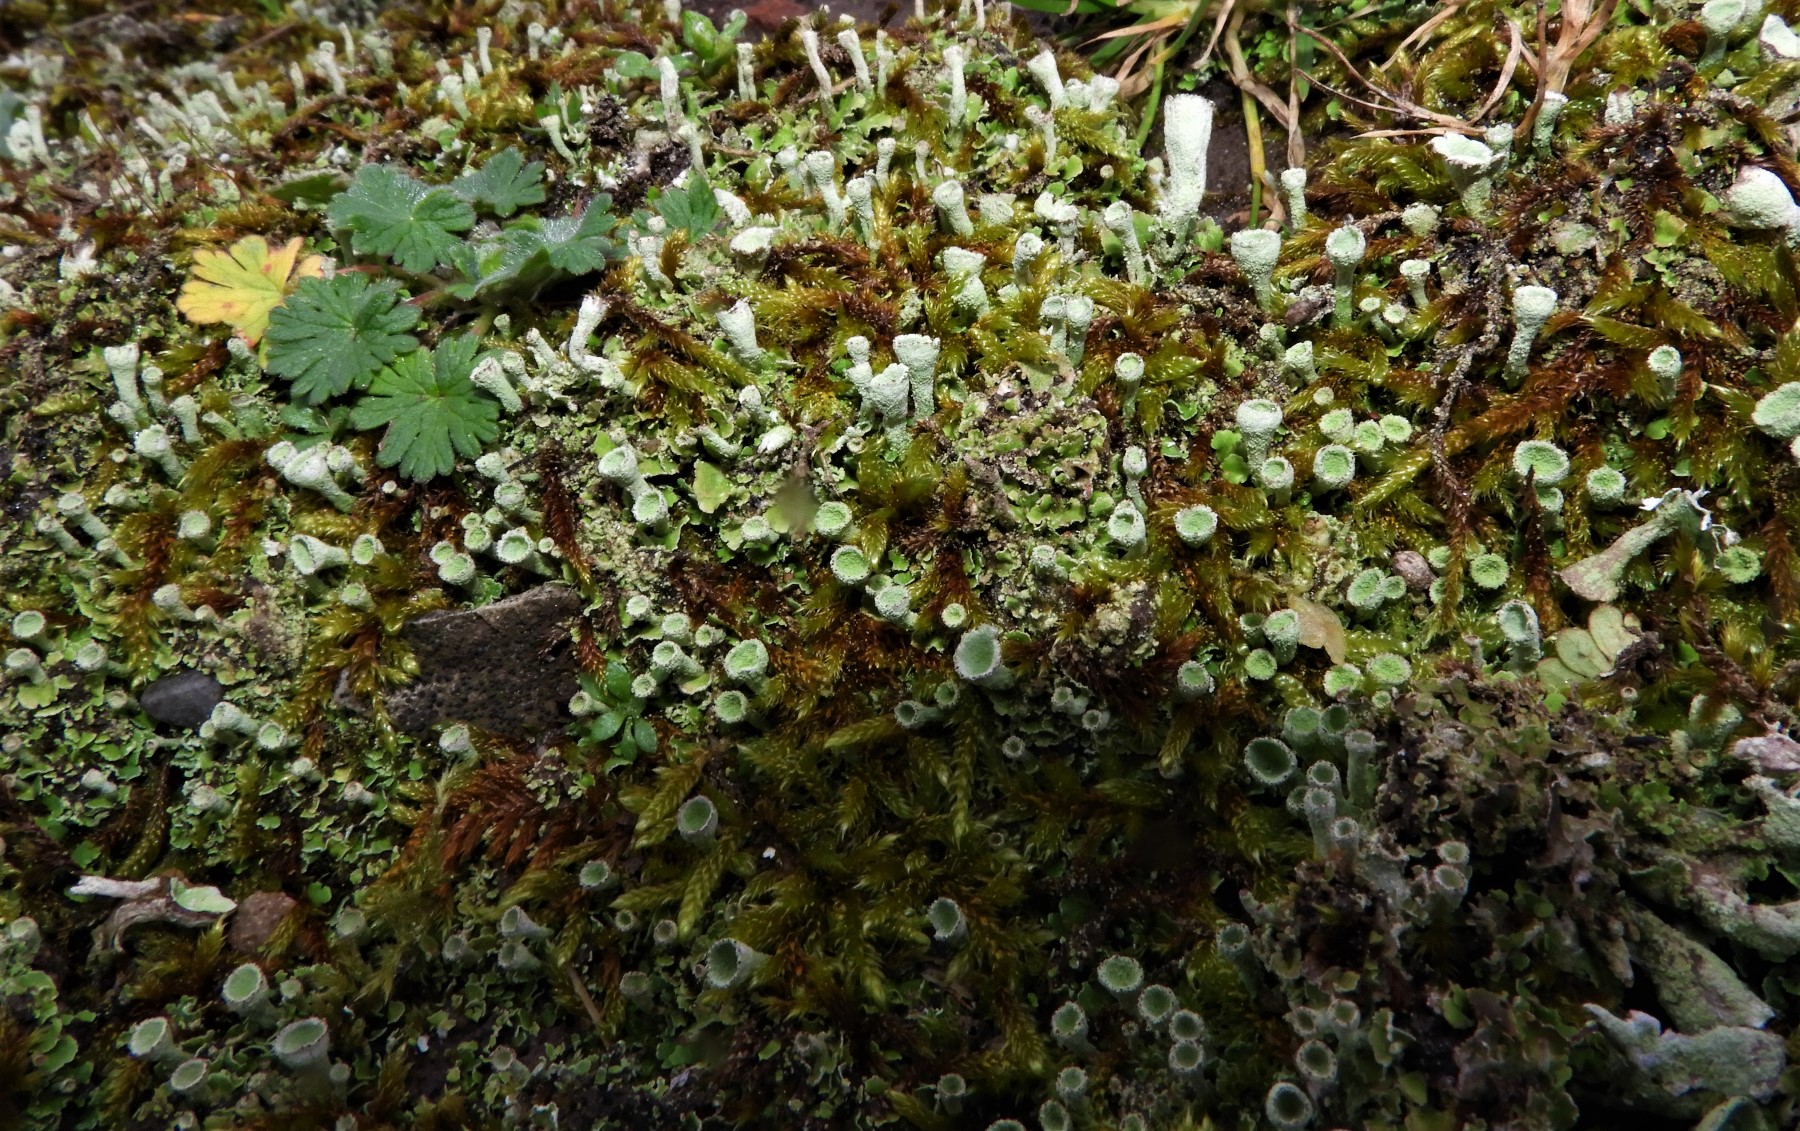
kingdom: Fungi
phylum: Ascomycota
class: Lecanoromycetes
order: Lecanorales
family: Cladoniaceae
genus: Cladonia
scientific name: Cladonia humilis
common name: lav bægerlav
